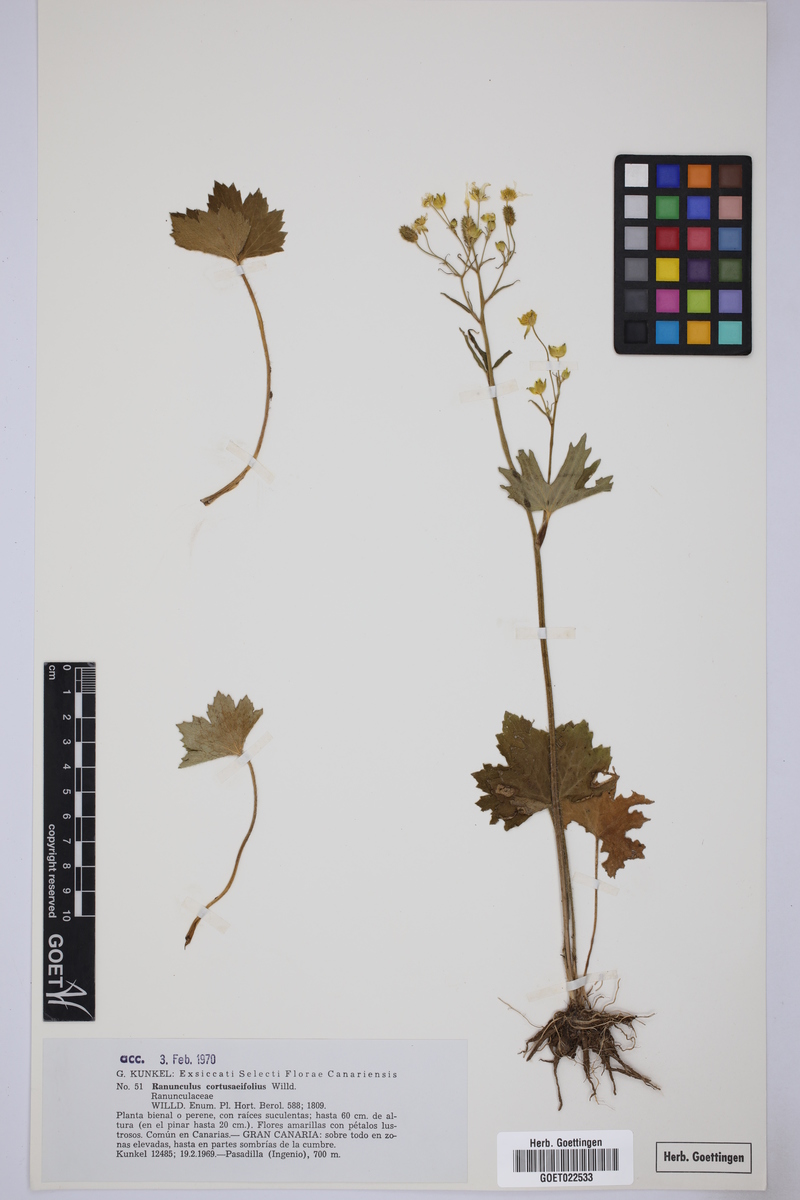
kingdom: Plantae
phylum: Tracheophyta
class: Magnoliopsida
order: Ranunculales
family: Ranunculaceae
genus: Ranunculus
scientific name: Ranunculus cortusifolius
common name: Azores buttercup
